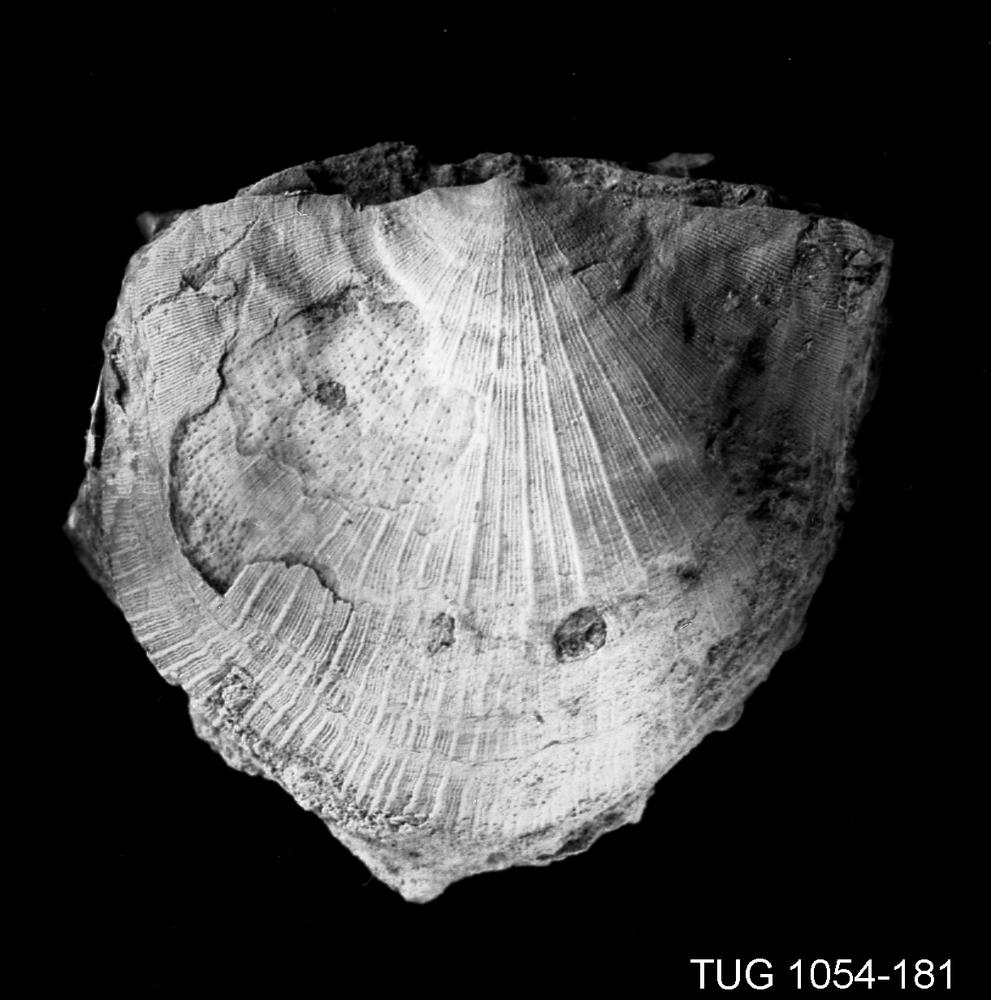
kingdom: Animalia
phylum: Brachiopoda
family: Strophomenidae
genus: Tallinnites
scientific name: Tallinnites Kukrusena peetriensis
